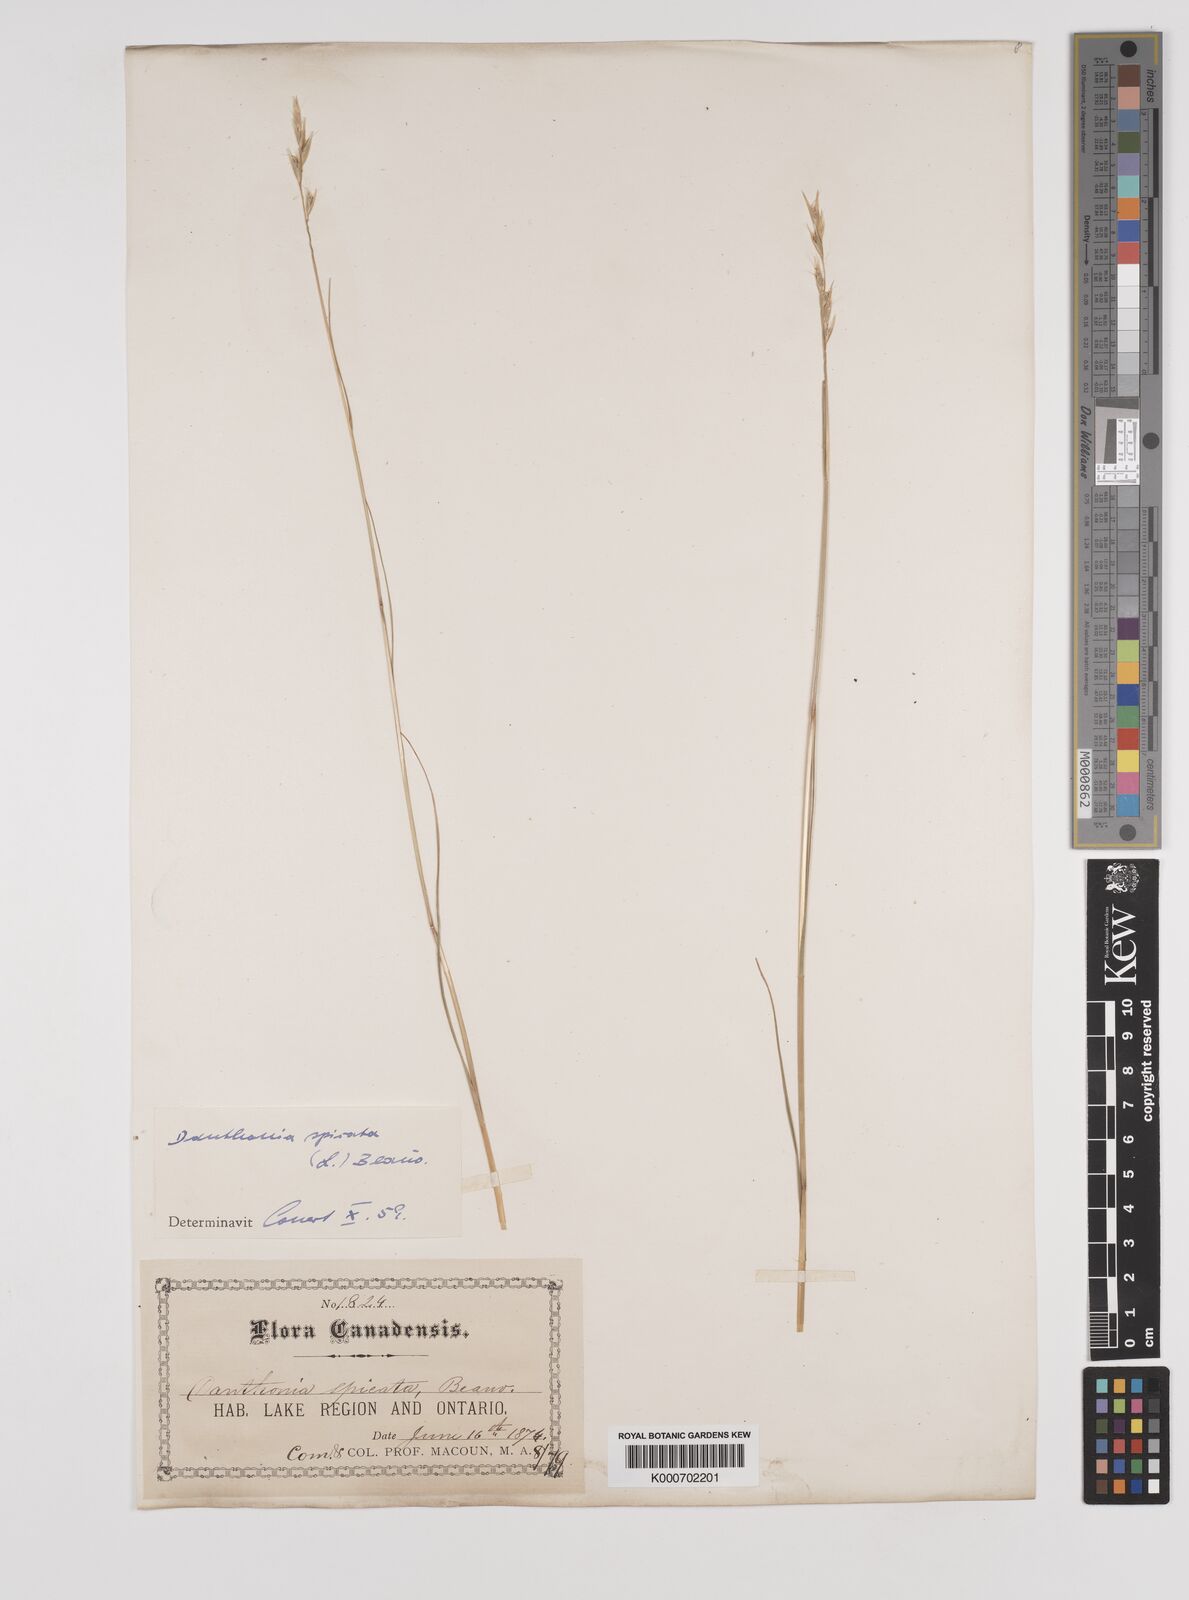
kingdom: Plantae
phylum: Tracheophyta
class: Liliopsida
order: Poales
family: Poaceae
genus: Danthonia
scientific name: Danthonia spicata
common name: Common wild oatgrass
